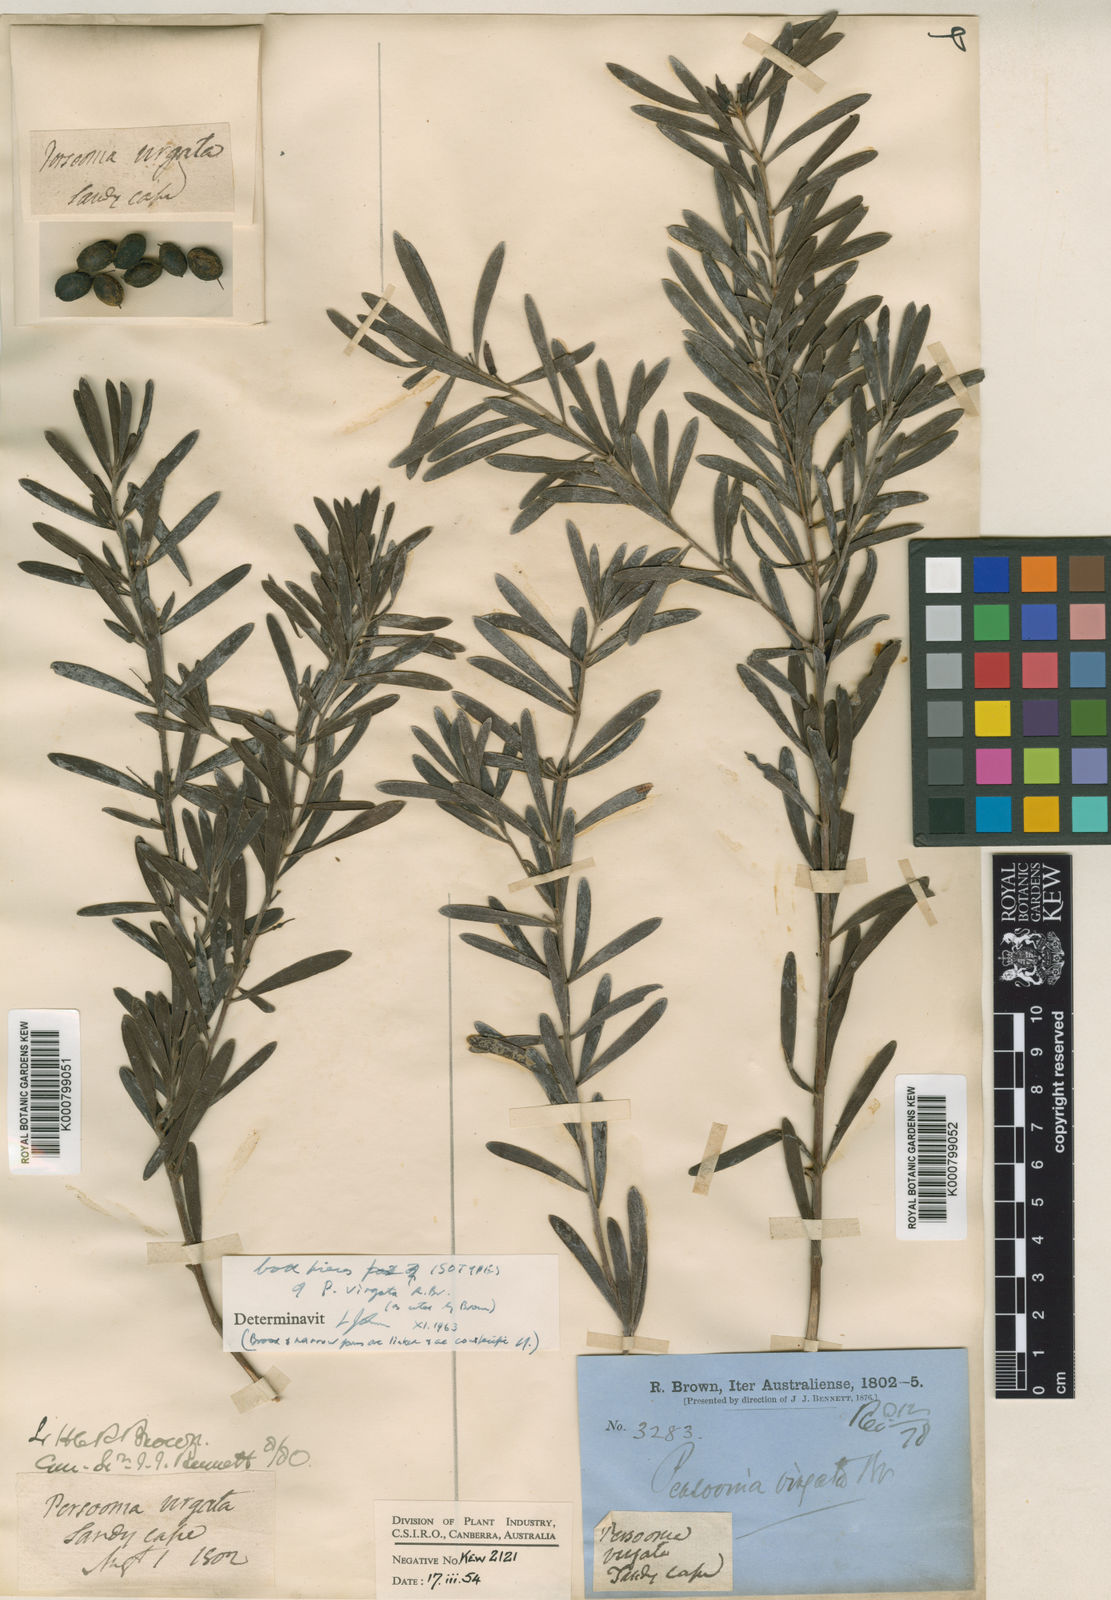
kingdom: Plantae
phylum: Tracheophyta
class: Magnoliopsida
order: Proteales
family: Proteaceae
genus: Persoonia
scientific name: Persoonia virgata
